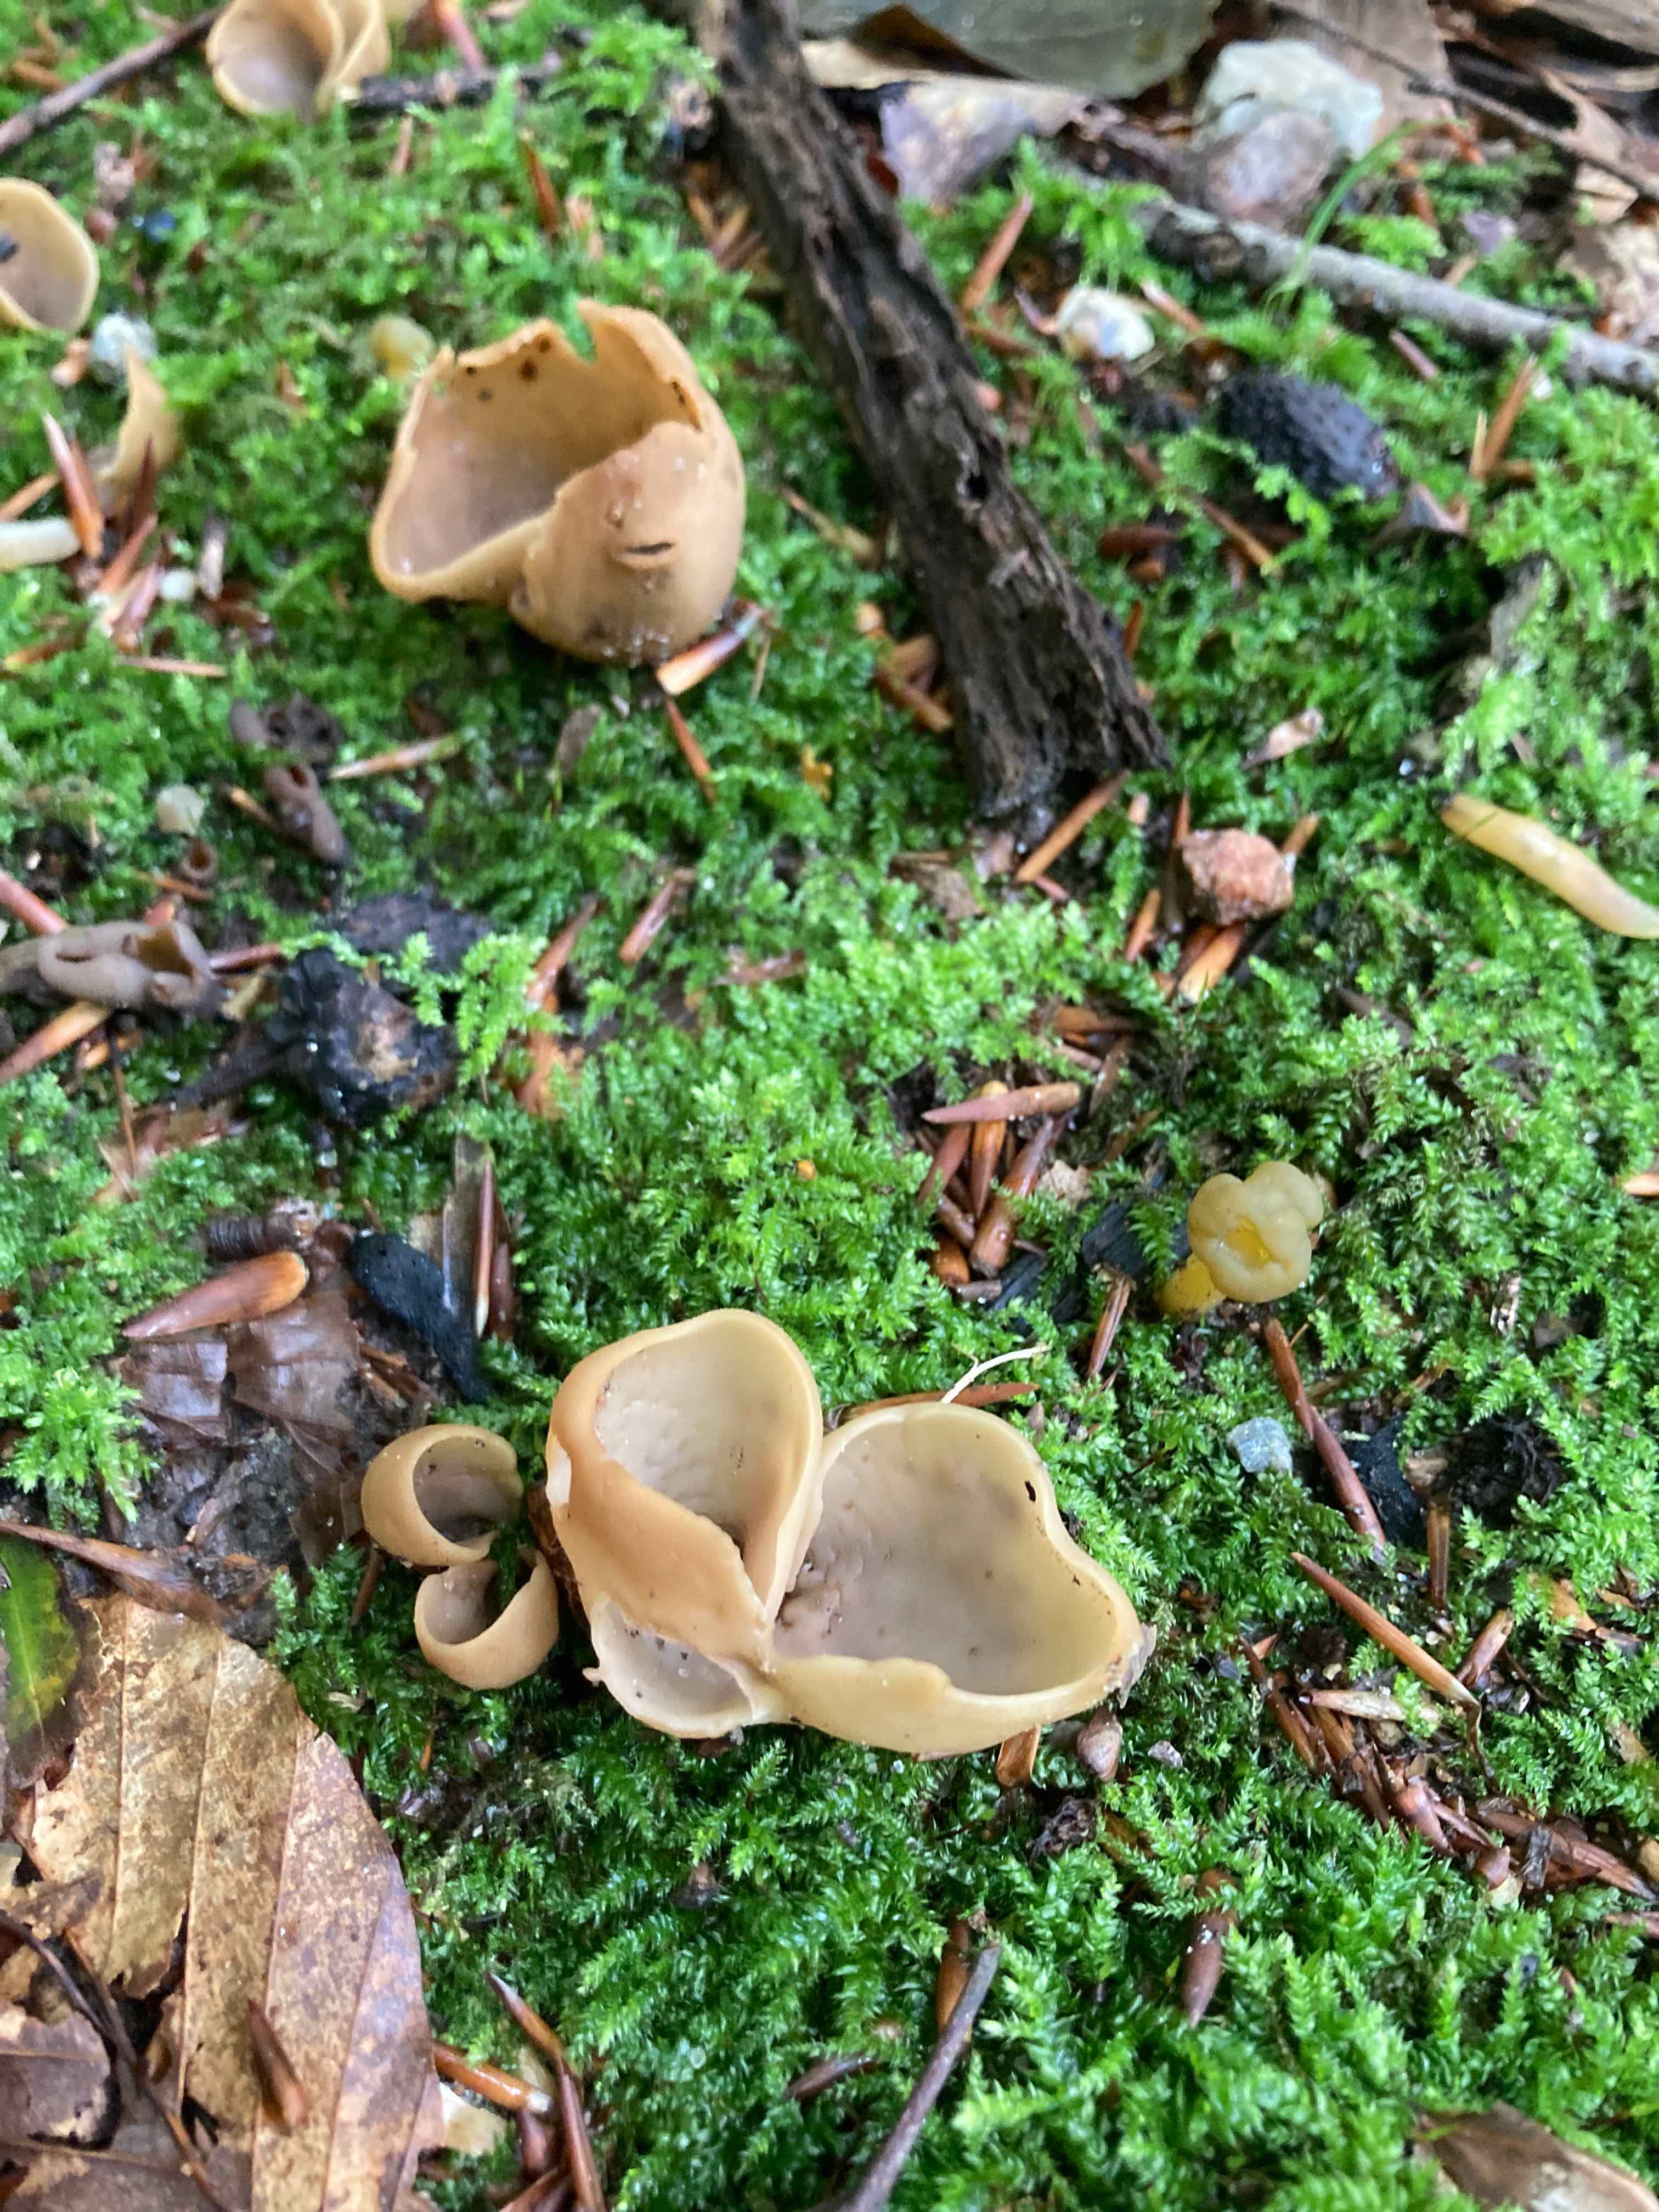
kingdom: Fungi
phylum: Ascomycota
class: Pezizomycetes
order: Pezizales
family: Otideaceae
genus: Otidea
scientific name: Otidea alutacea
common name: læder-ørebæger
